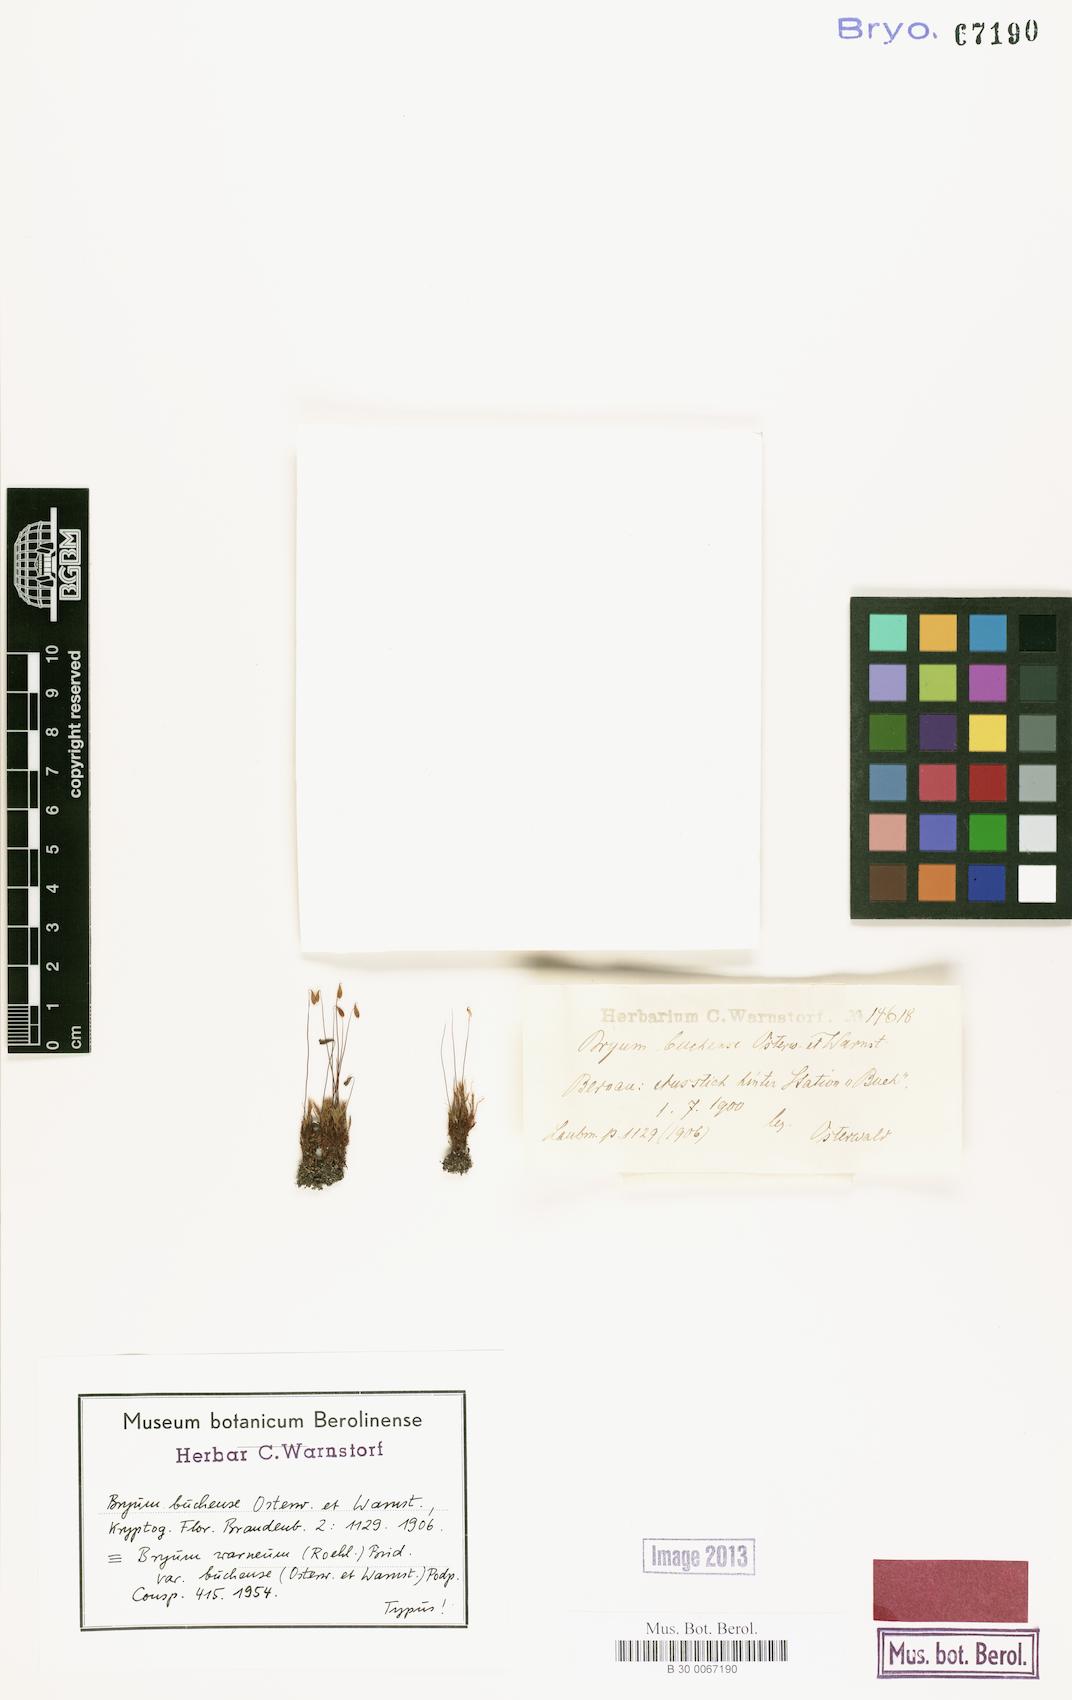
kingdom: Plantae
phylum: Bryophyta
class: Bryopsida
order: Bryales
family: Bryaceae
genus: Ptychostomum
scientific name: Ptychostomum warneum
